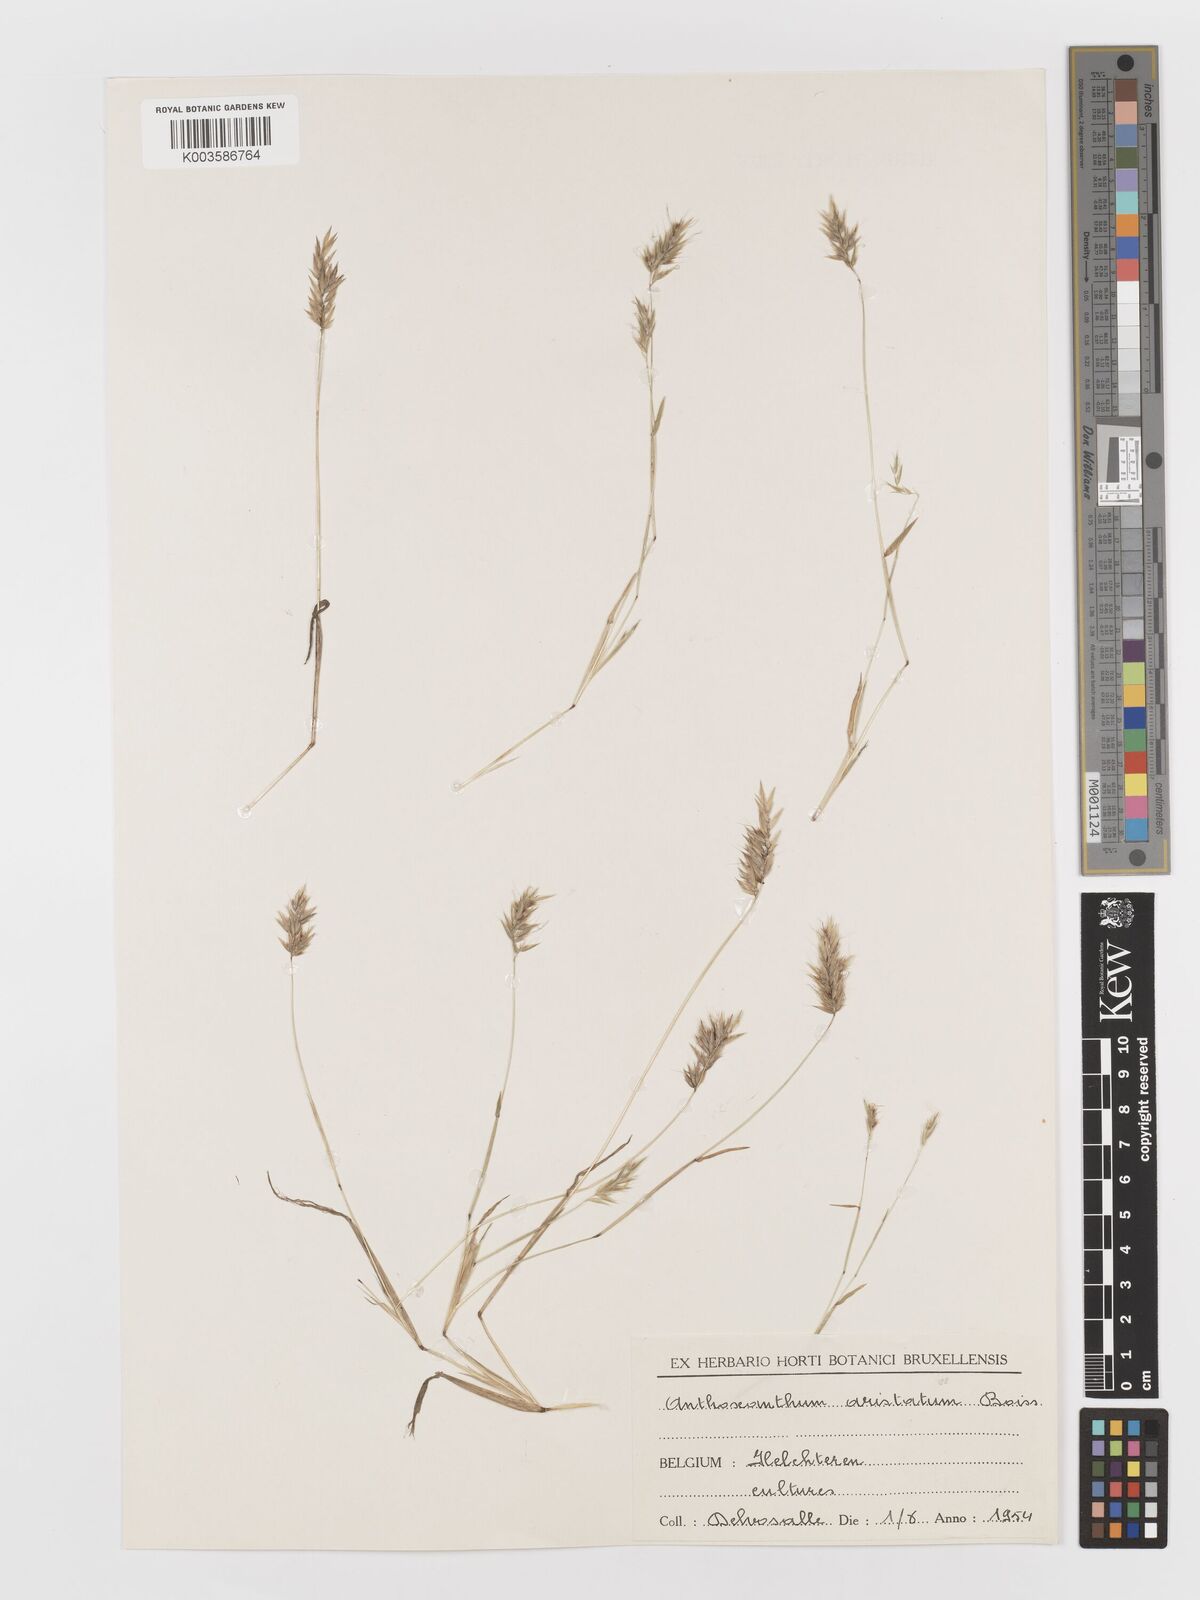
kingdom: Plantae
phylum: Tracheophyta
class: Liliopsida
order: Poales
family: Poaceae
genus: Anthoxanthum
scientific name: Anthoxanthum aristatum
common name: Annual vernal-grass
